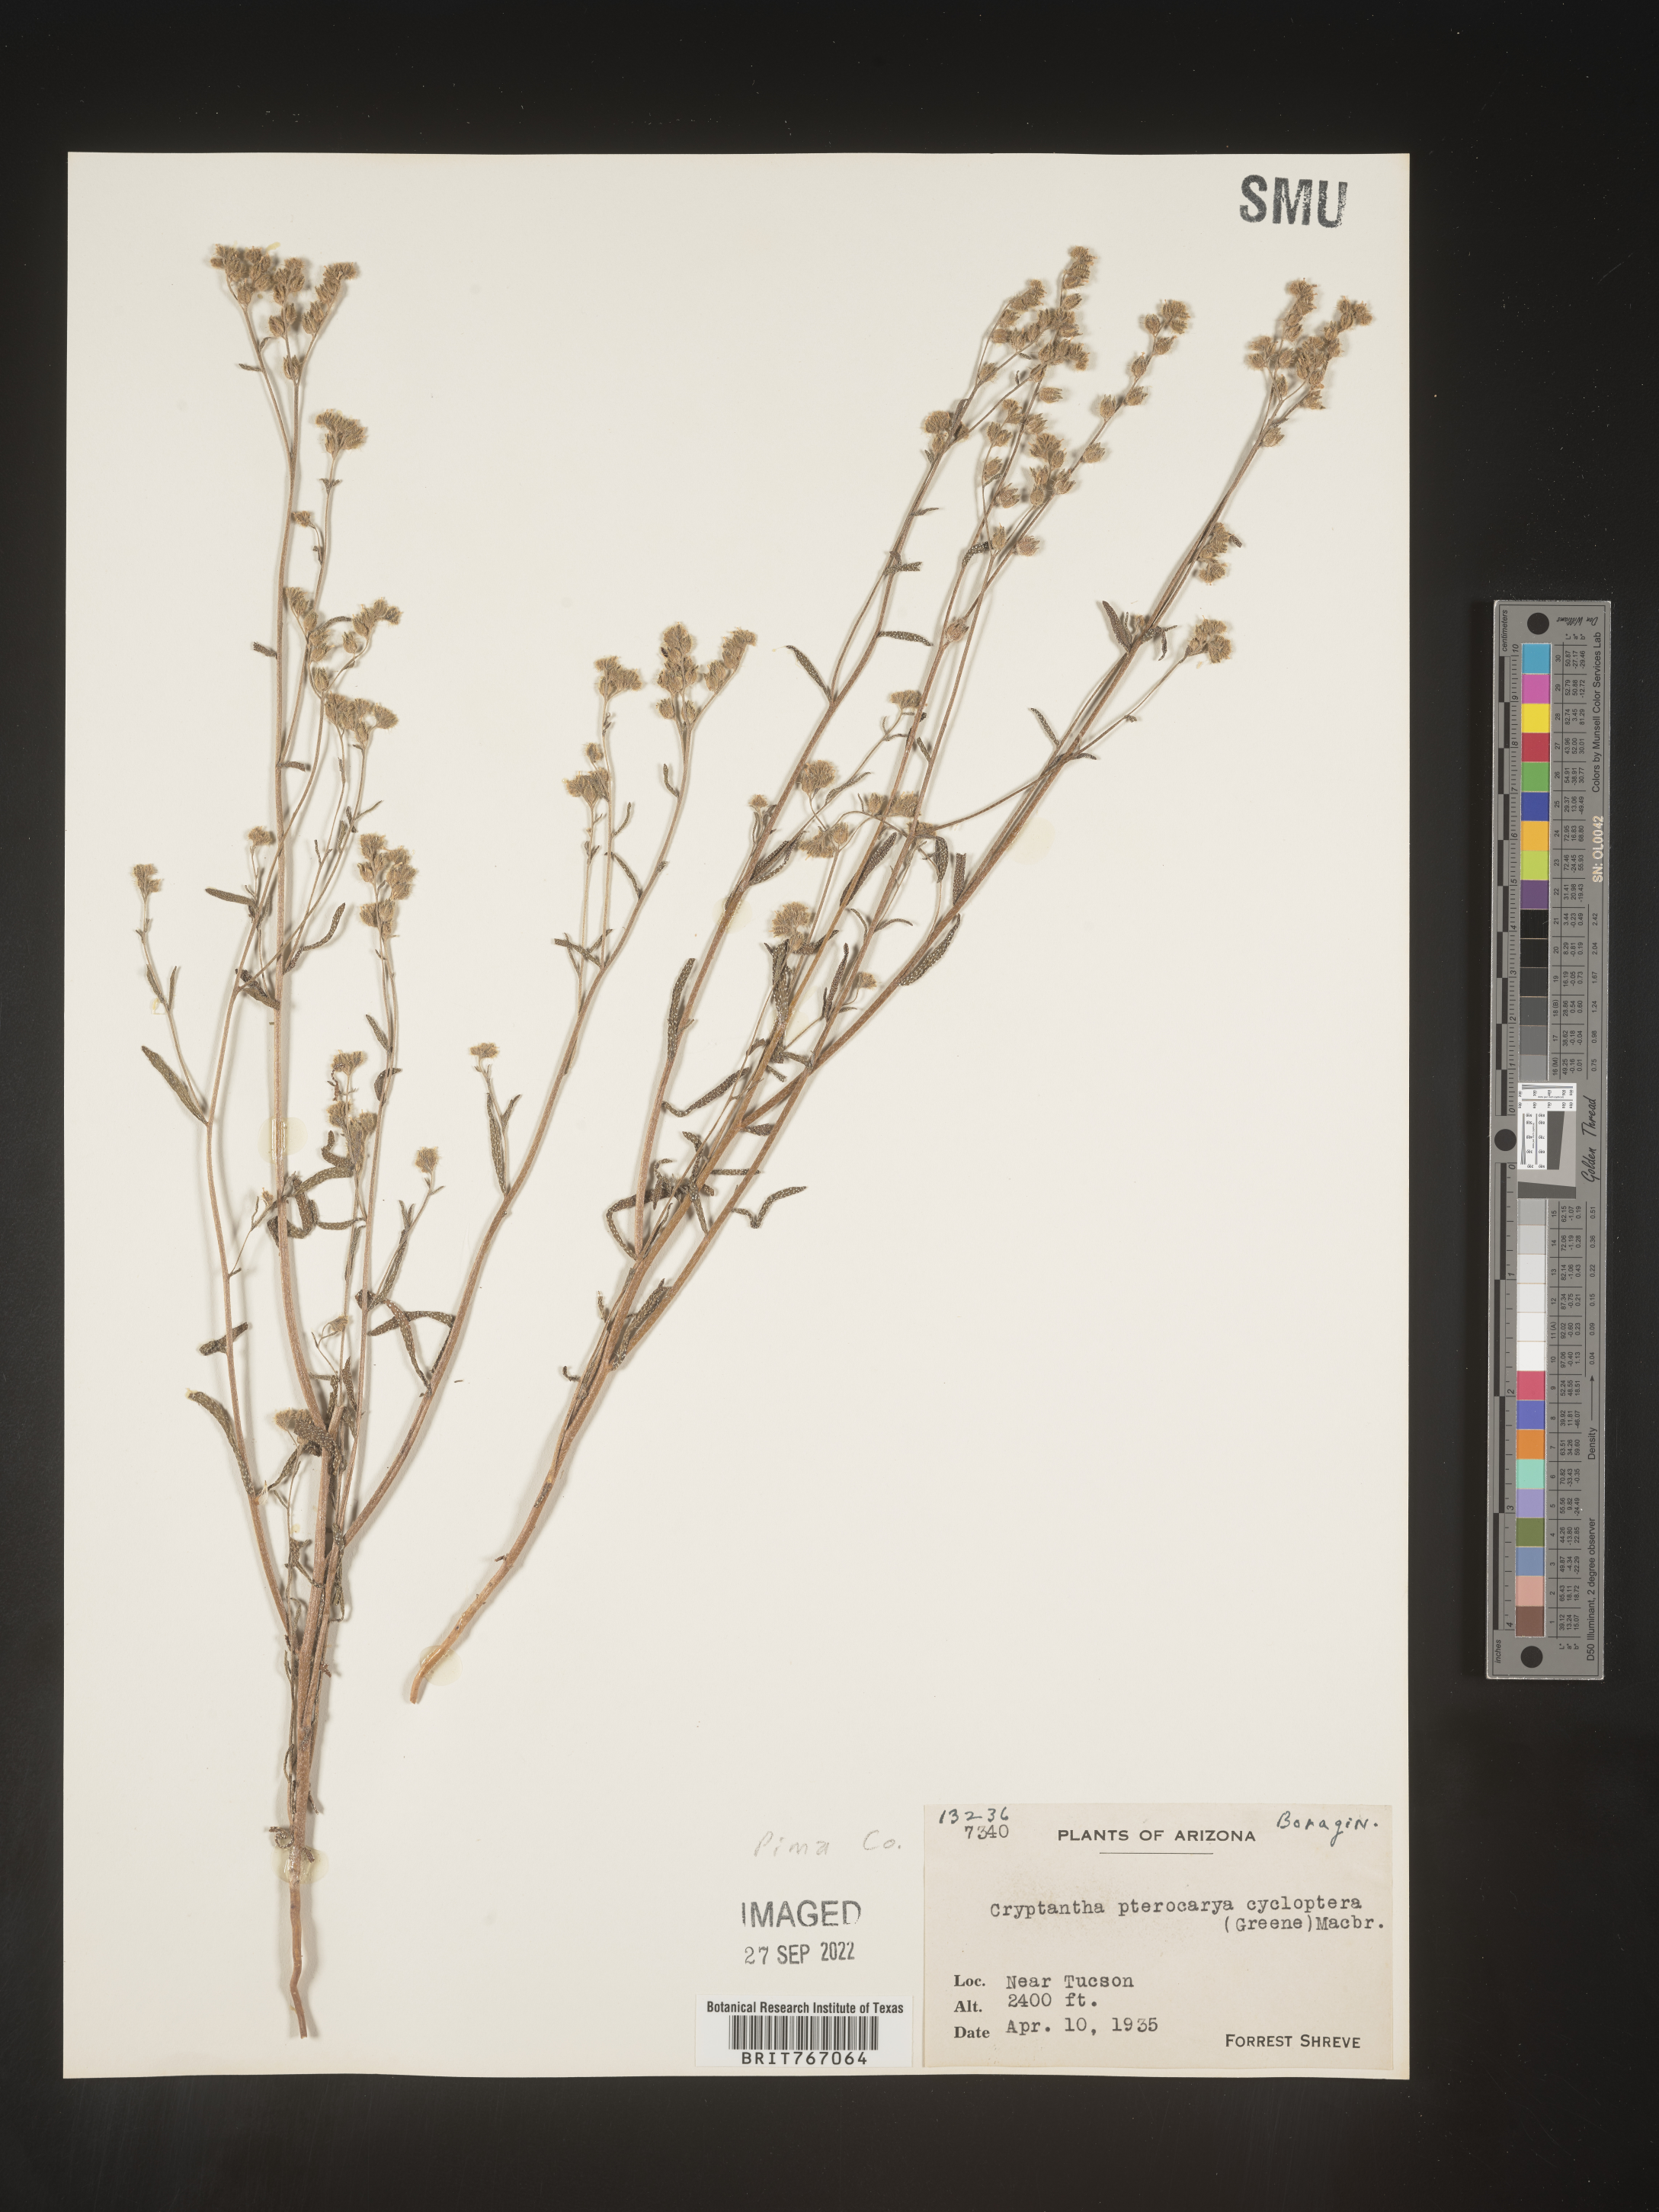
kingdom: Plantae
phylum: Tracheophyta
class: Magnoliopsida
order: Boraginales
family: Boraginaceae
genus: Cryptantha
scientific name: Cryptantha pterocarya
